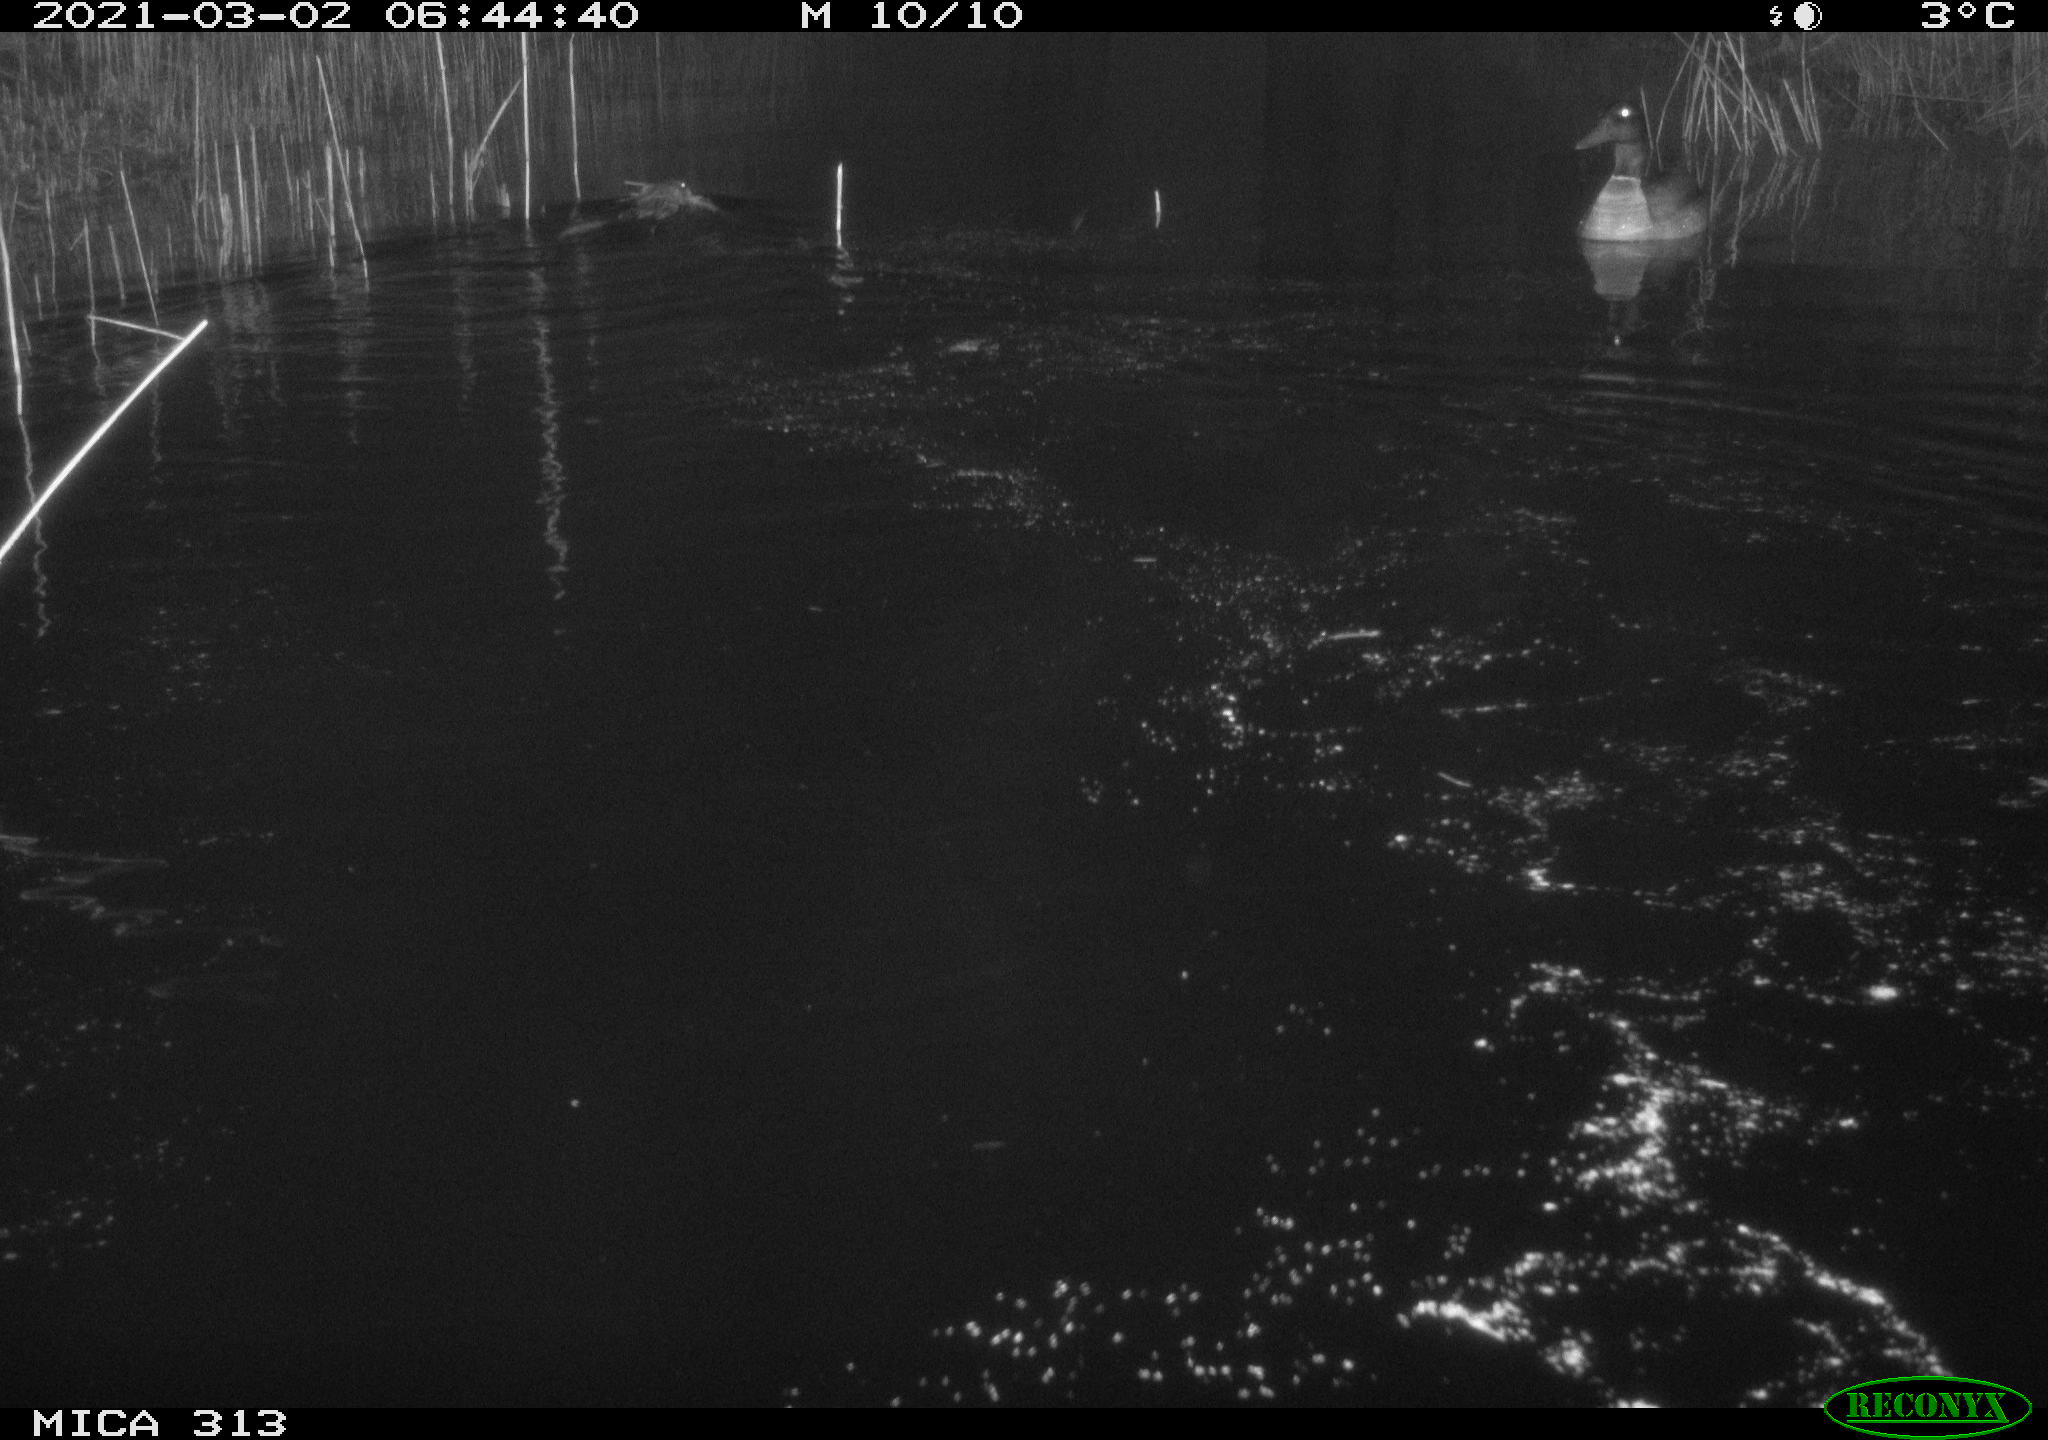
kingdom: Animalia
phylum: Chordata
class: Mammalia
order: Rodentia
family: Cricetidae
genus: Ondatra
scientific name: Ondatra zibethicus
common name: Muskrat
